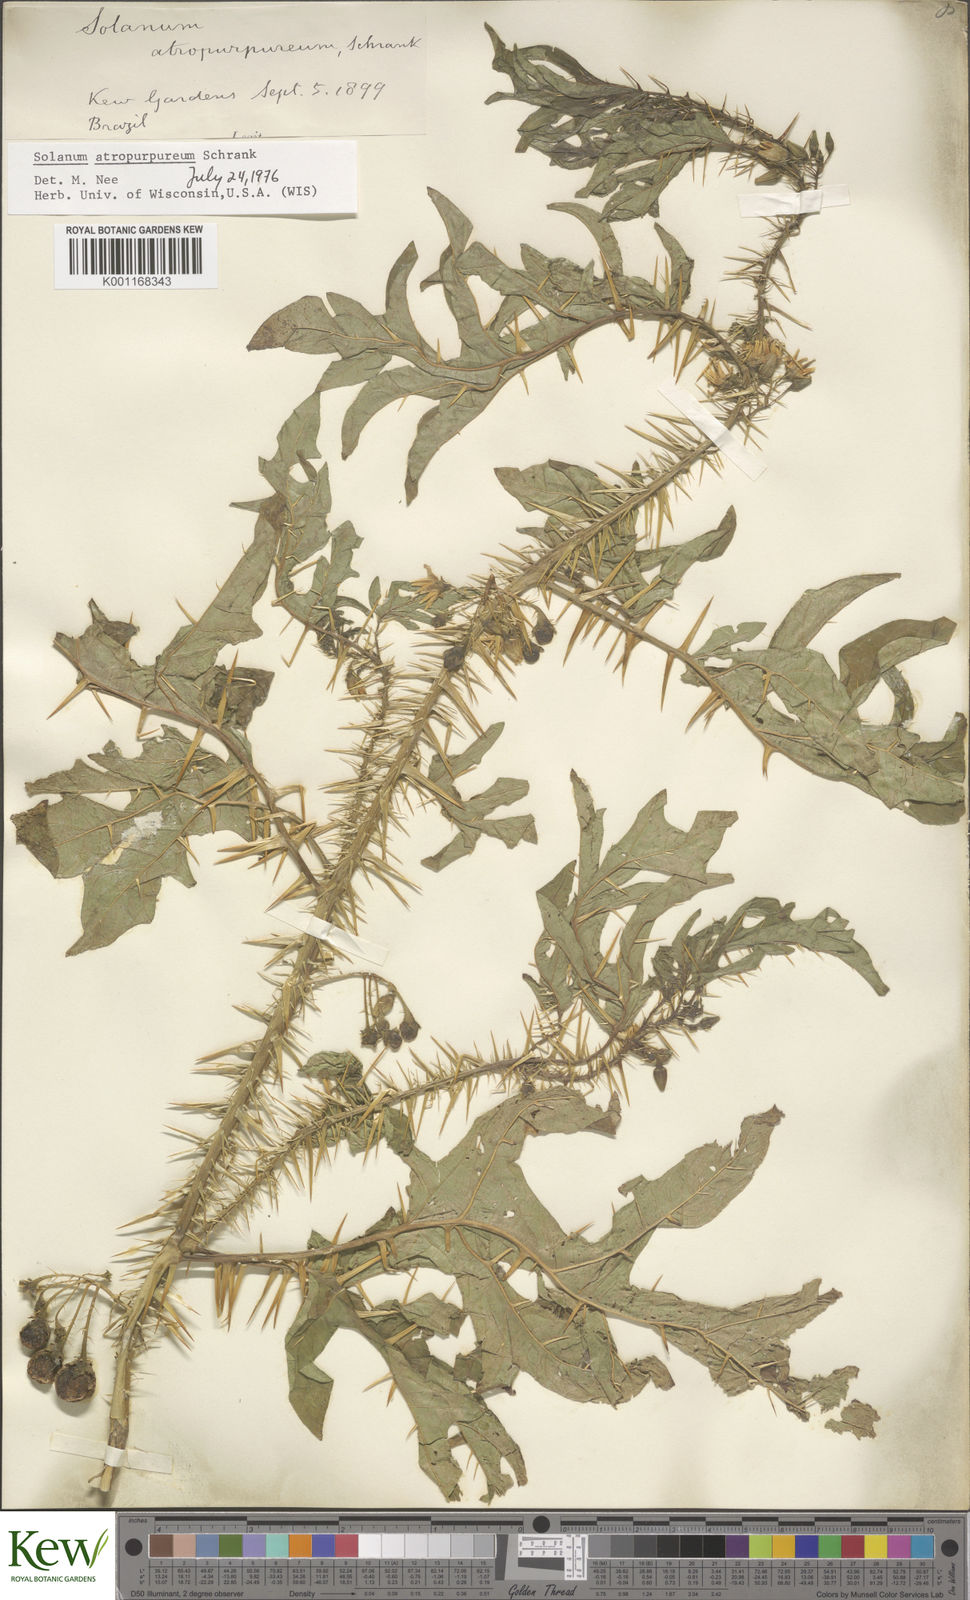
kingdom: Plantae
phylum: Tracheophyta
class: Magnoliopsida
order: Solanales
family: Solanaceae
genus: Solanum
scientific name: Solanum atropurpureum
